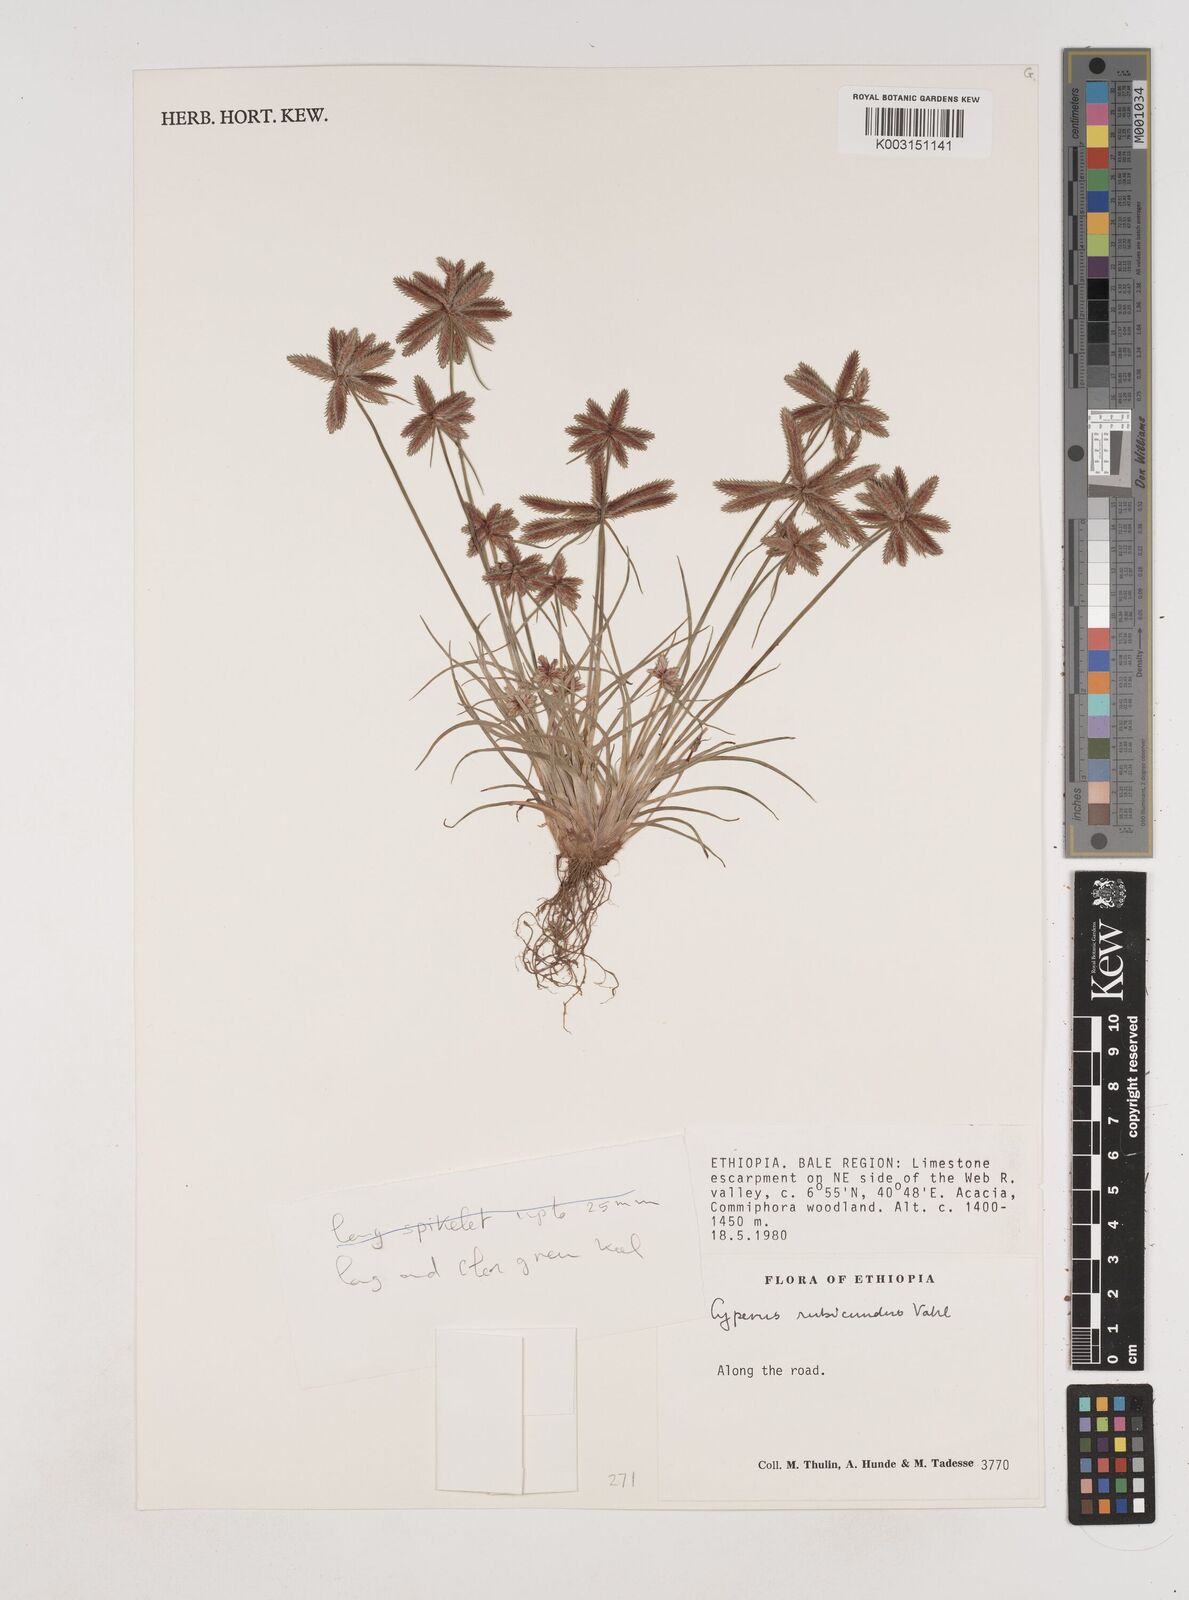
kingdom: Plantae
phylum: Tracheophyta
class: Liliopsida
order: Poales
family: Cyperaceae
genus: Cyperus
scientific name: Cyperus rubicundus
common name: Coco-grass
